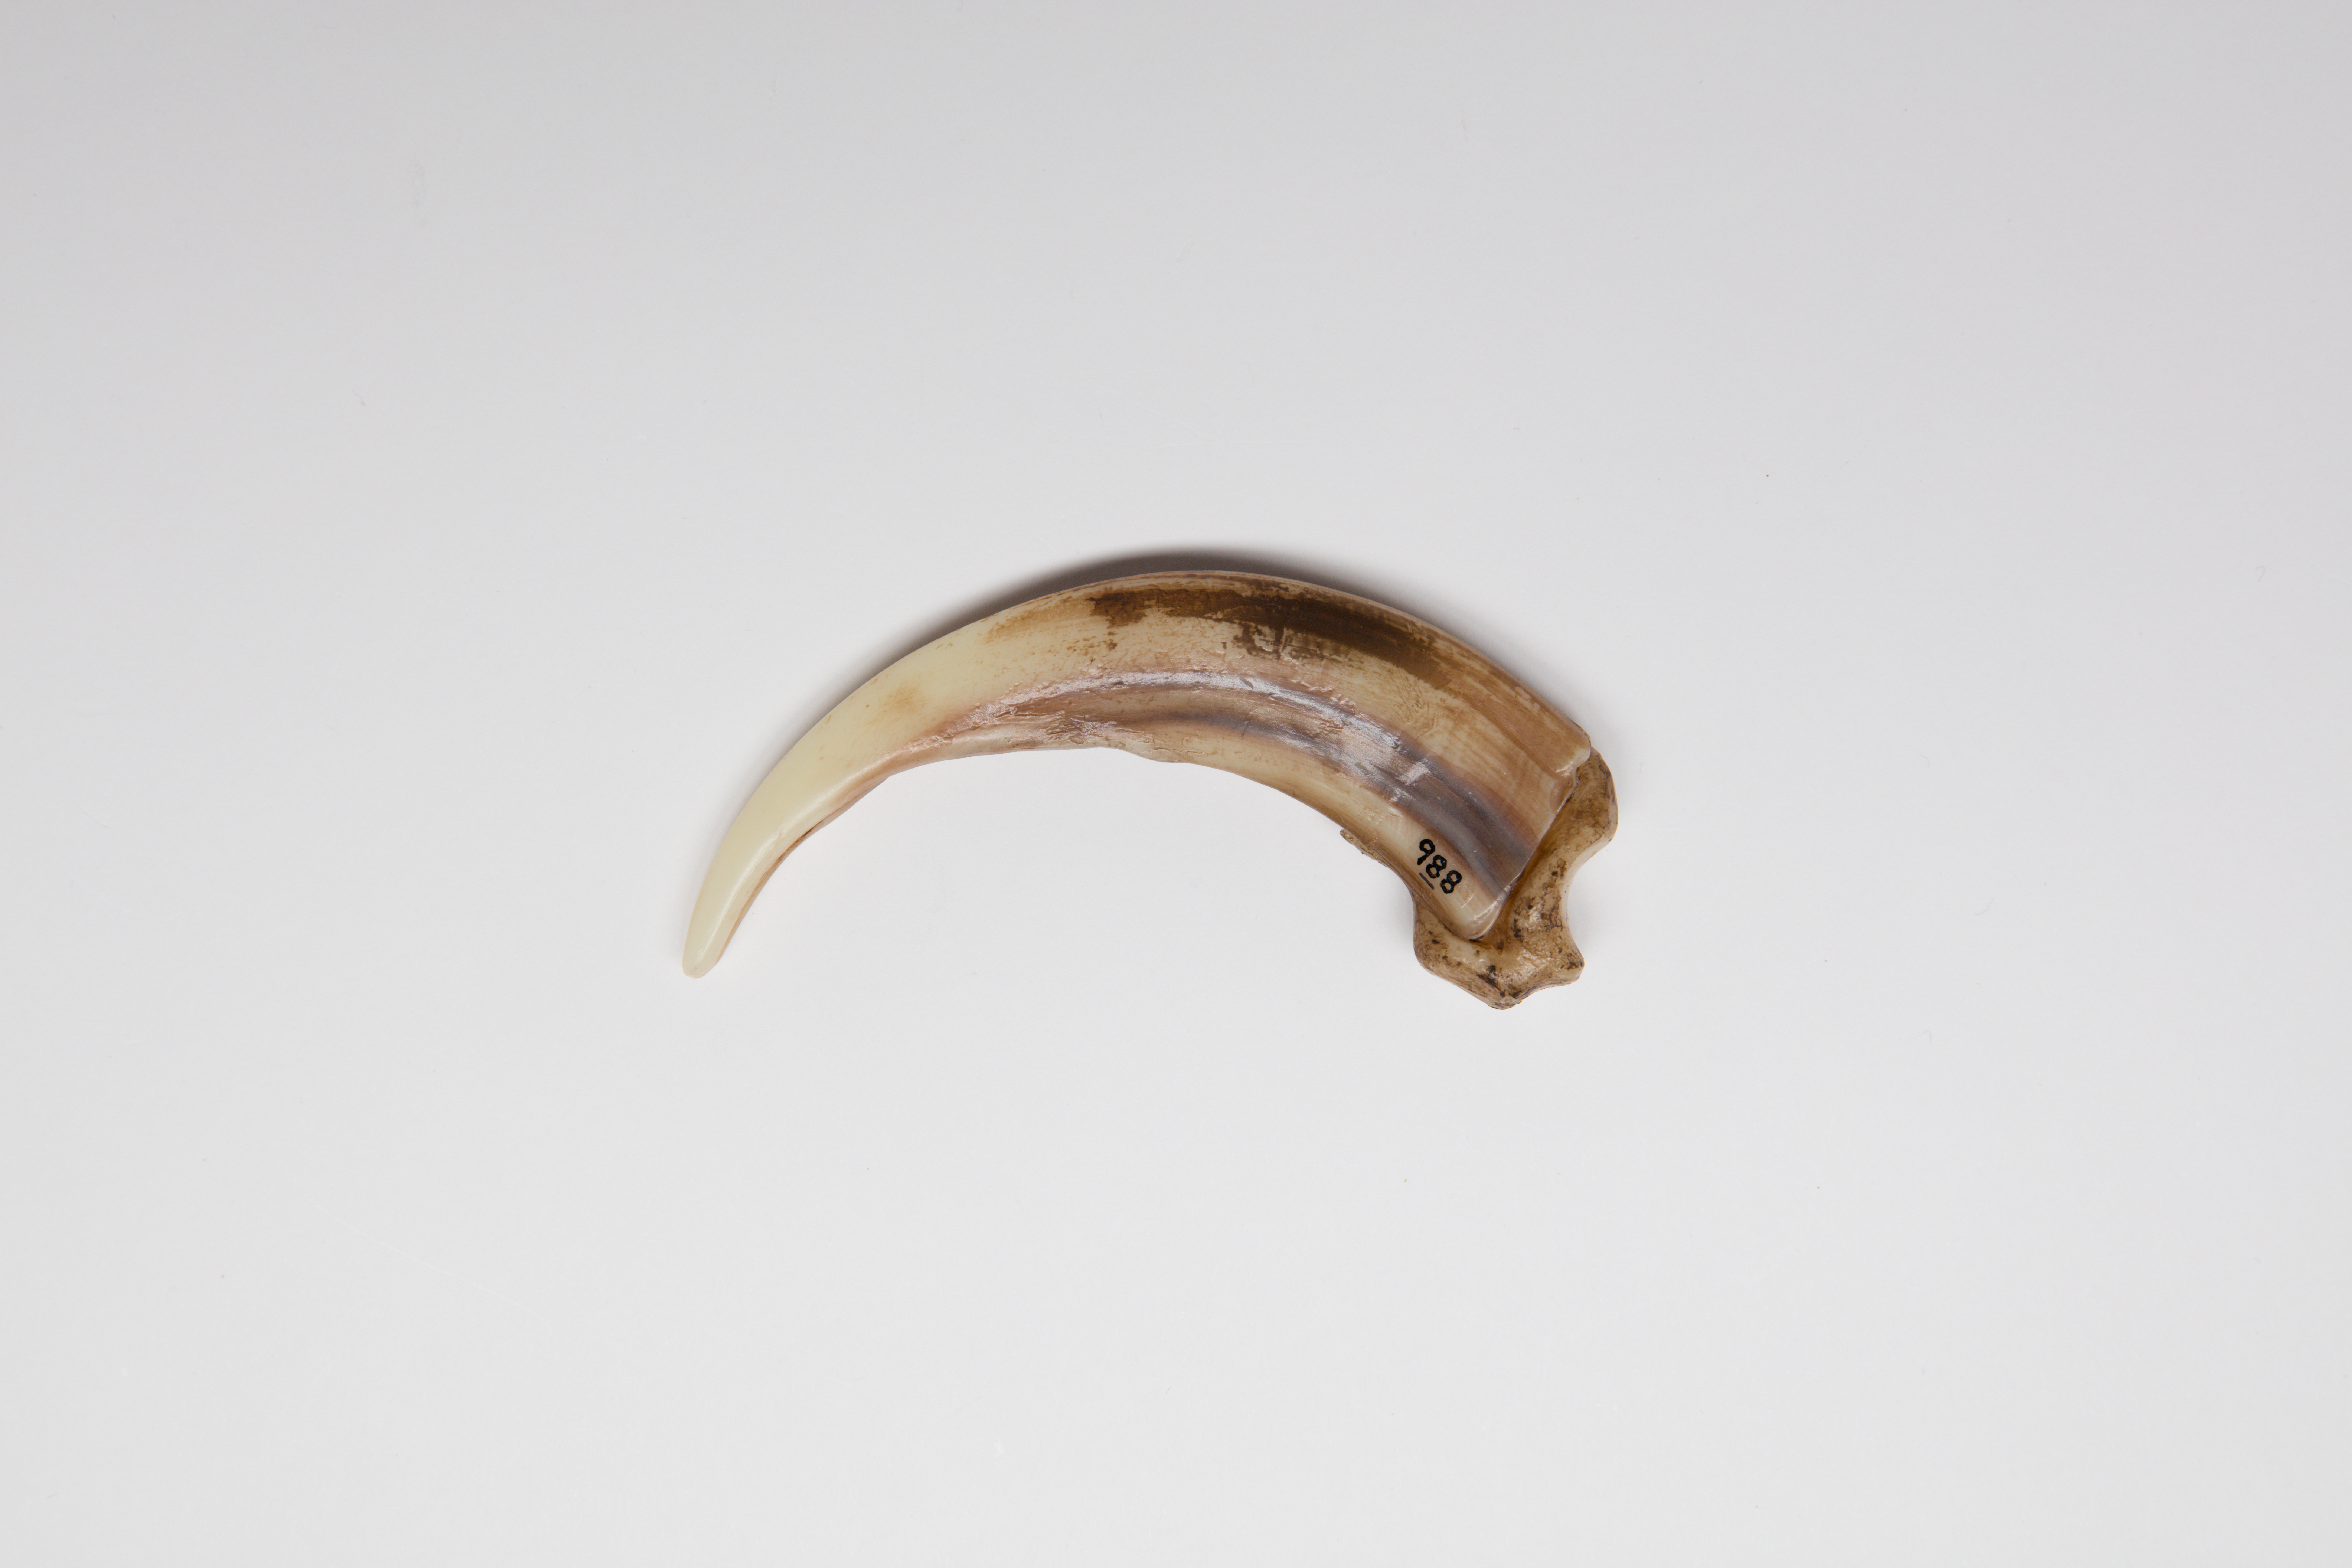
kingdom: Animalia
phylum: Chordata
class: Mammalia
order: Carnivora
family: Ursidae
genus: Ursus
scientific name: Ursus arctos
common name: Brown bear
